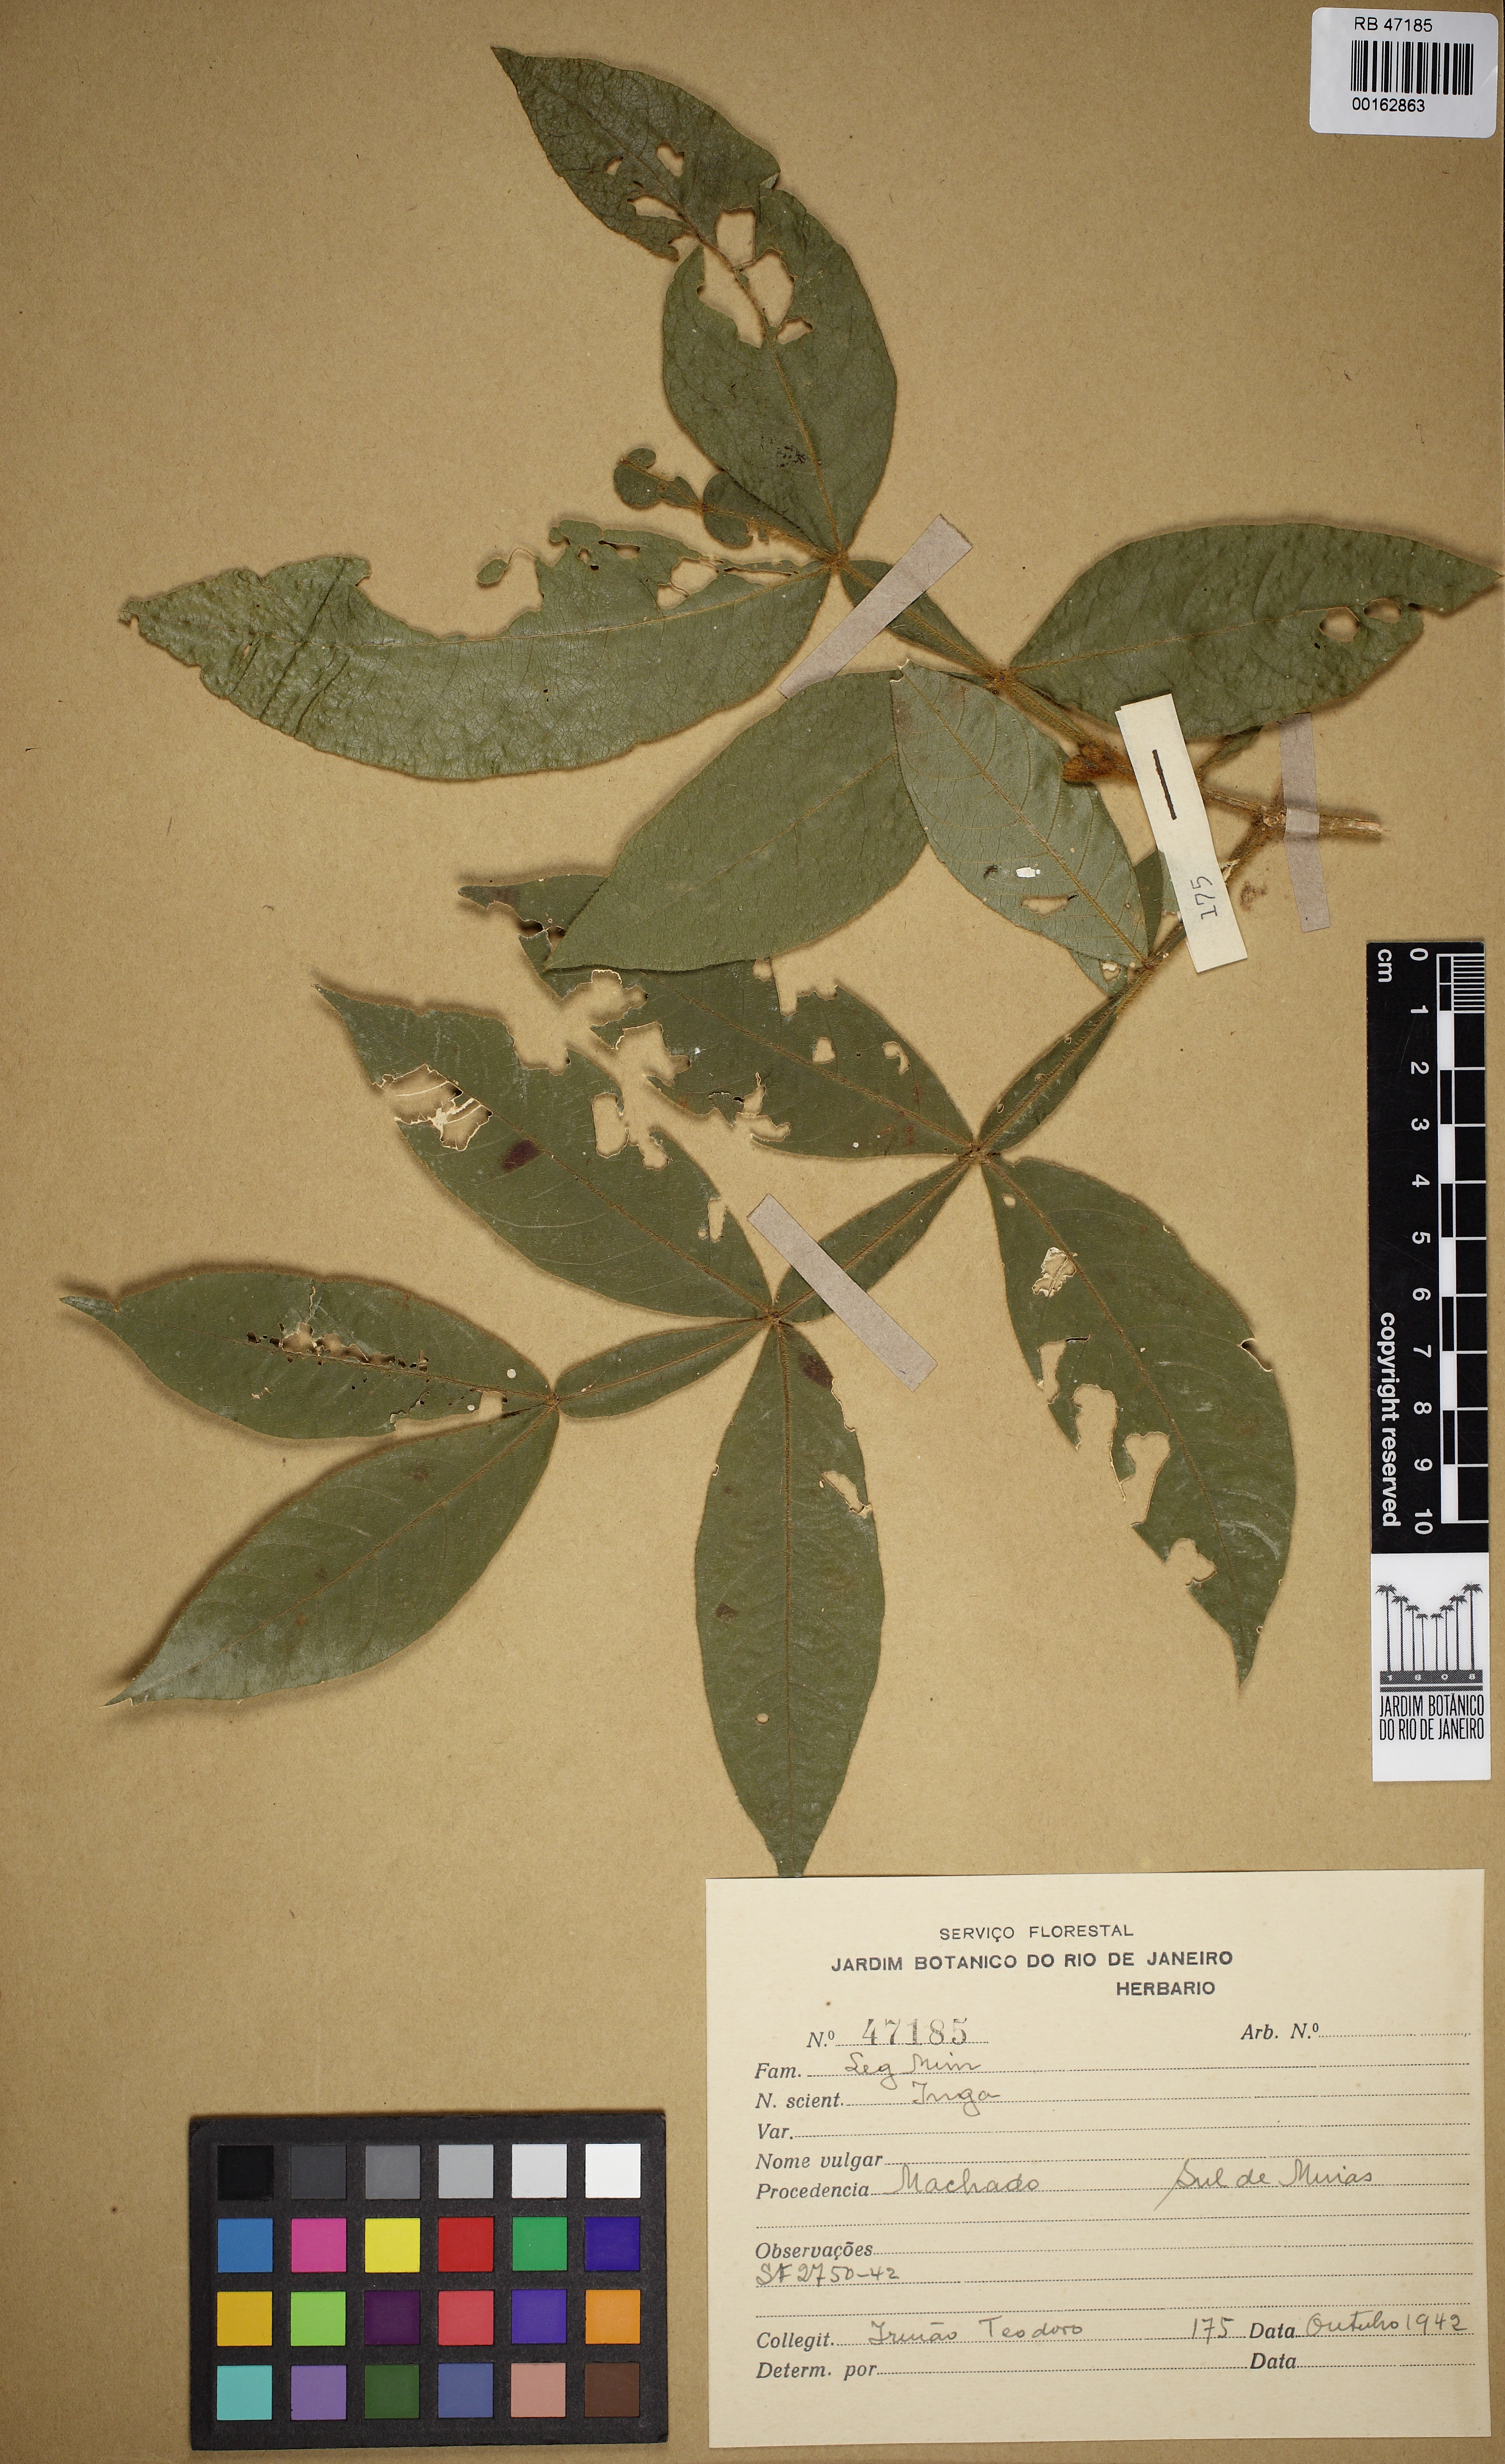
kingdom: Plantae
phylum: Tracheophyta
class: Magnoliopsida
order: Fabales
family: Fabaceae
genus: Inga
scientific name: Inga
